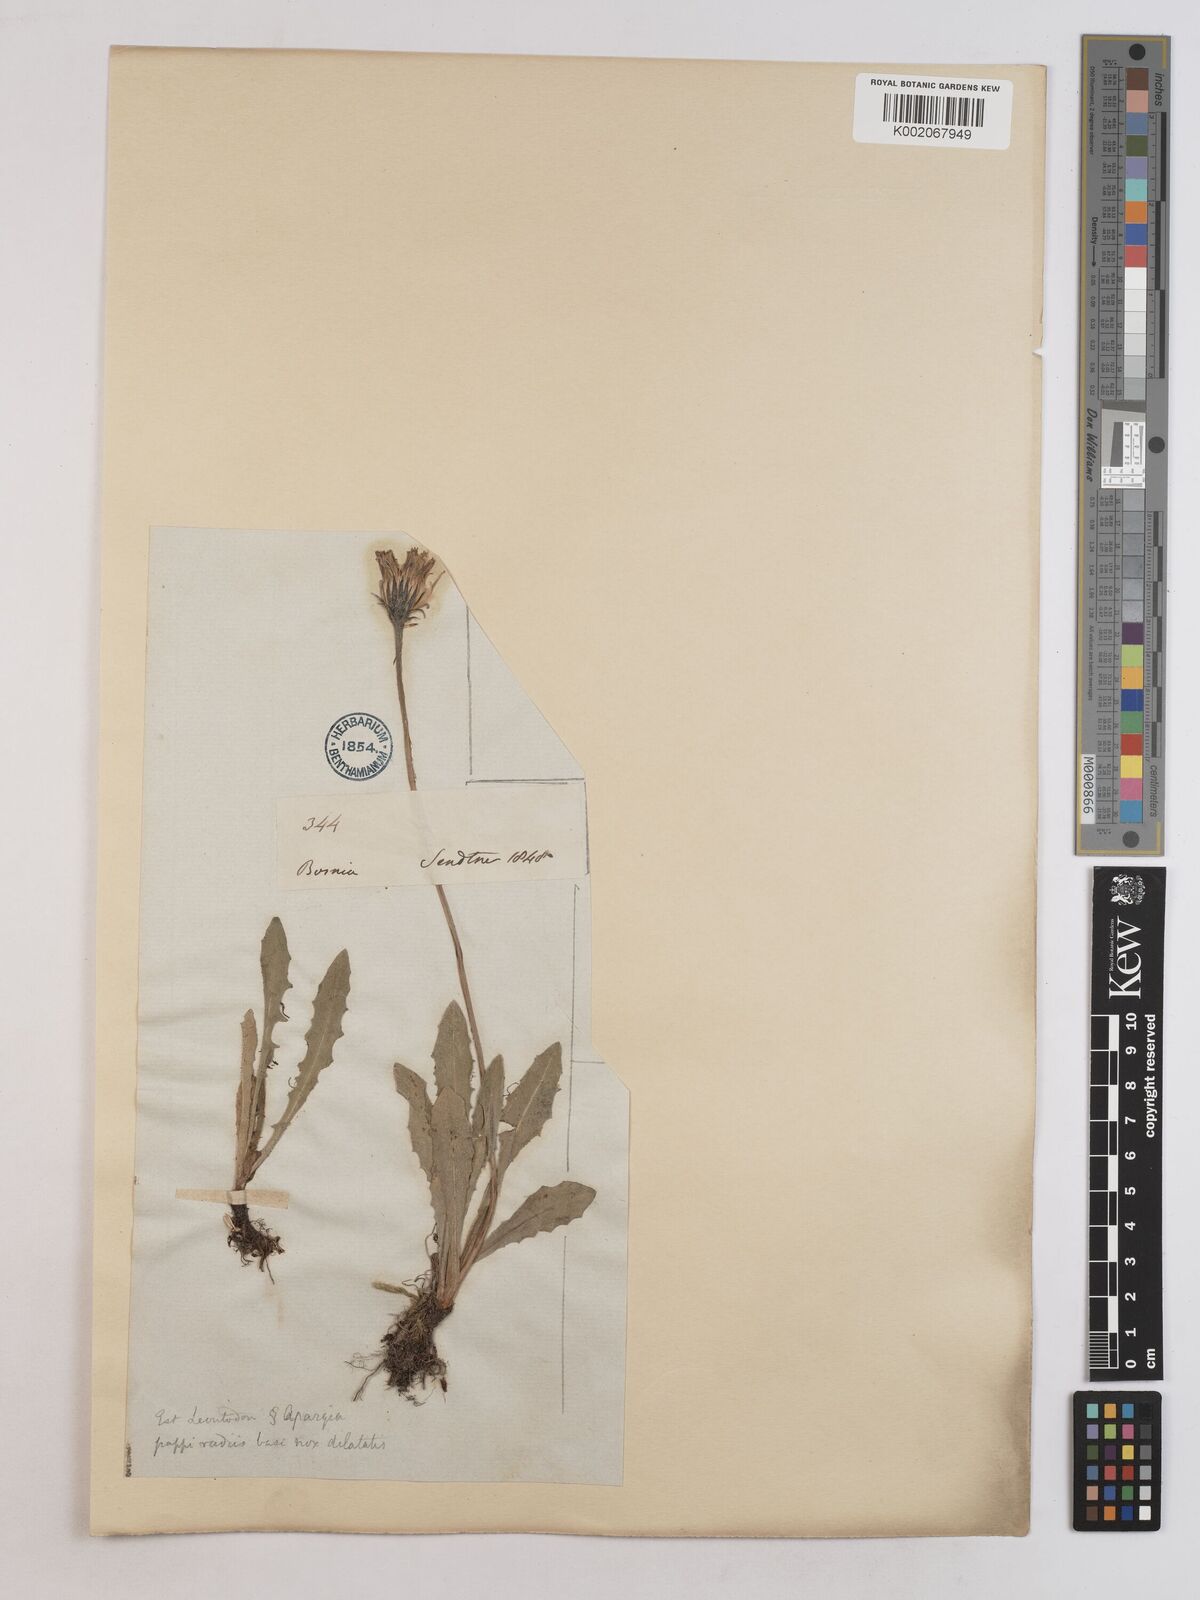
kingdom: Plantae
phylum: Tracheophyta
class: Magnoliopsida
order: Asterales
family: Asteraceae
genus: Leontodon
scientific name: Leontodon crispus
